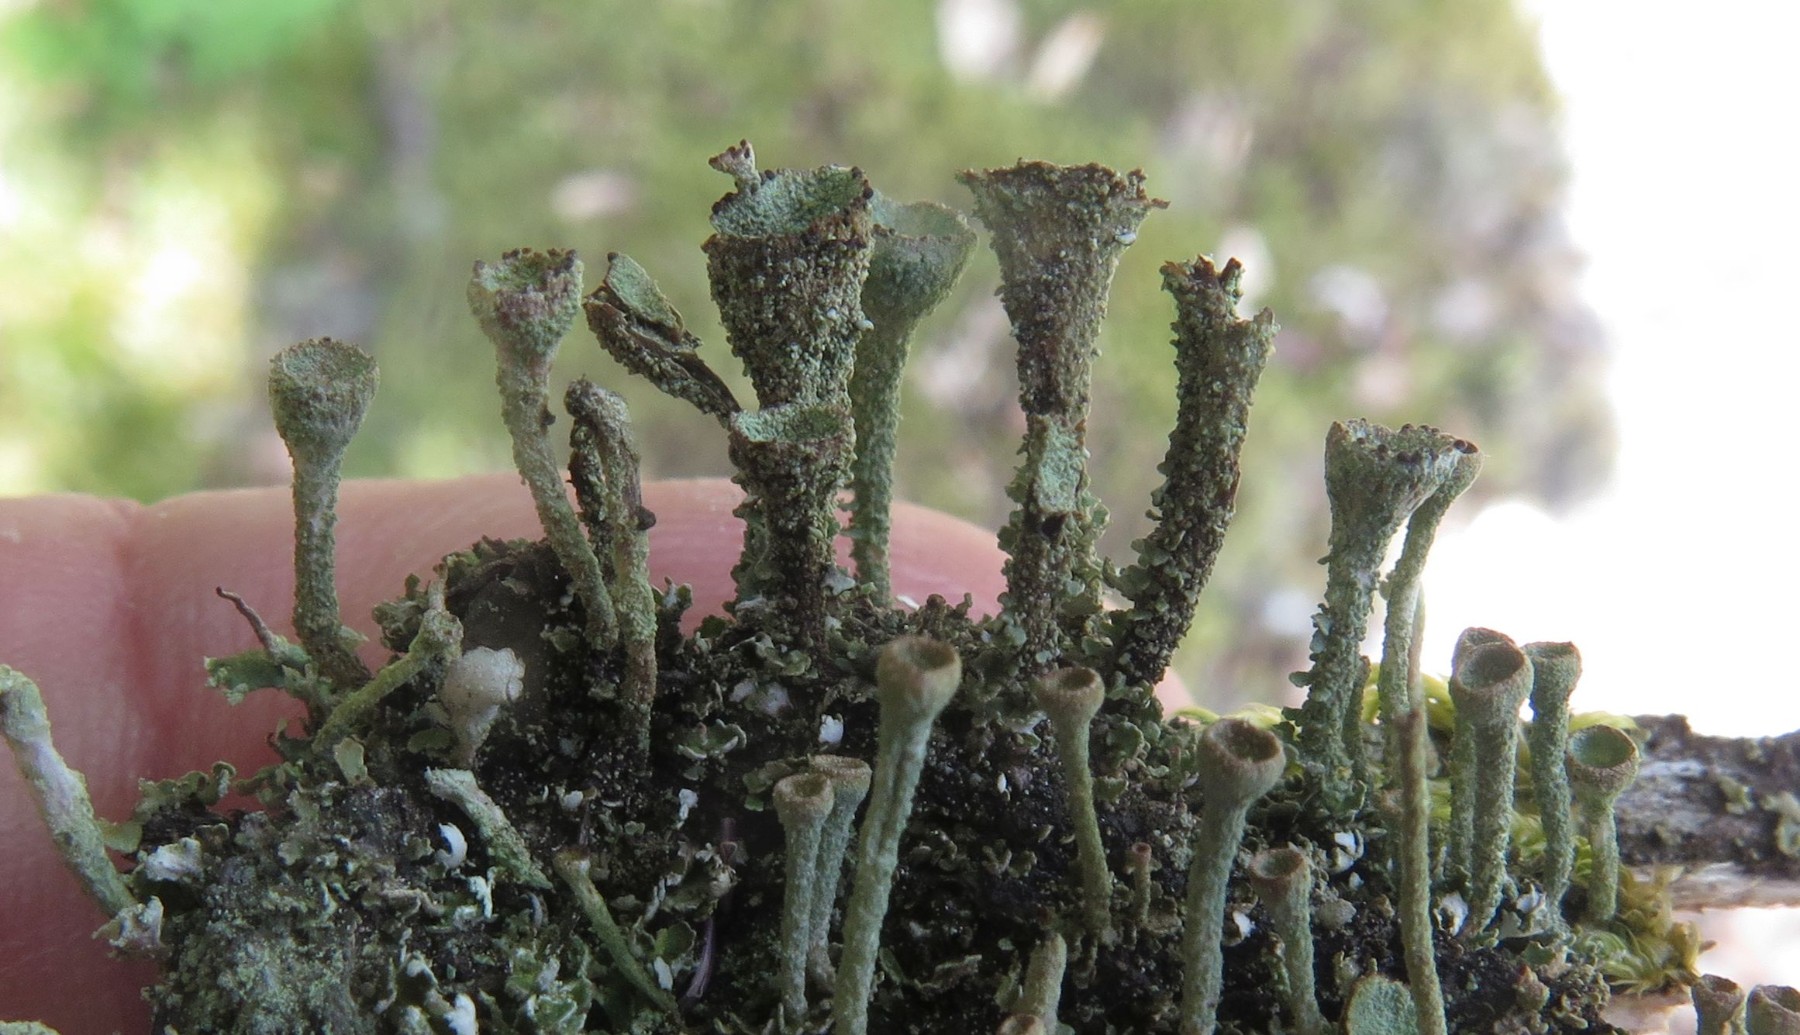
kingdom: Fungi
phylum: Ascomycota
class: Lecanoromycetes
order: Lecanorales
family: Cladoniaceae
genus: Cladonia
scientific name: Cladonia merochlorophaea
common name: mørk bægerlav
